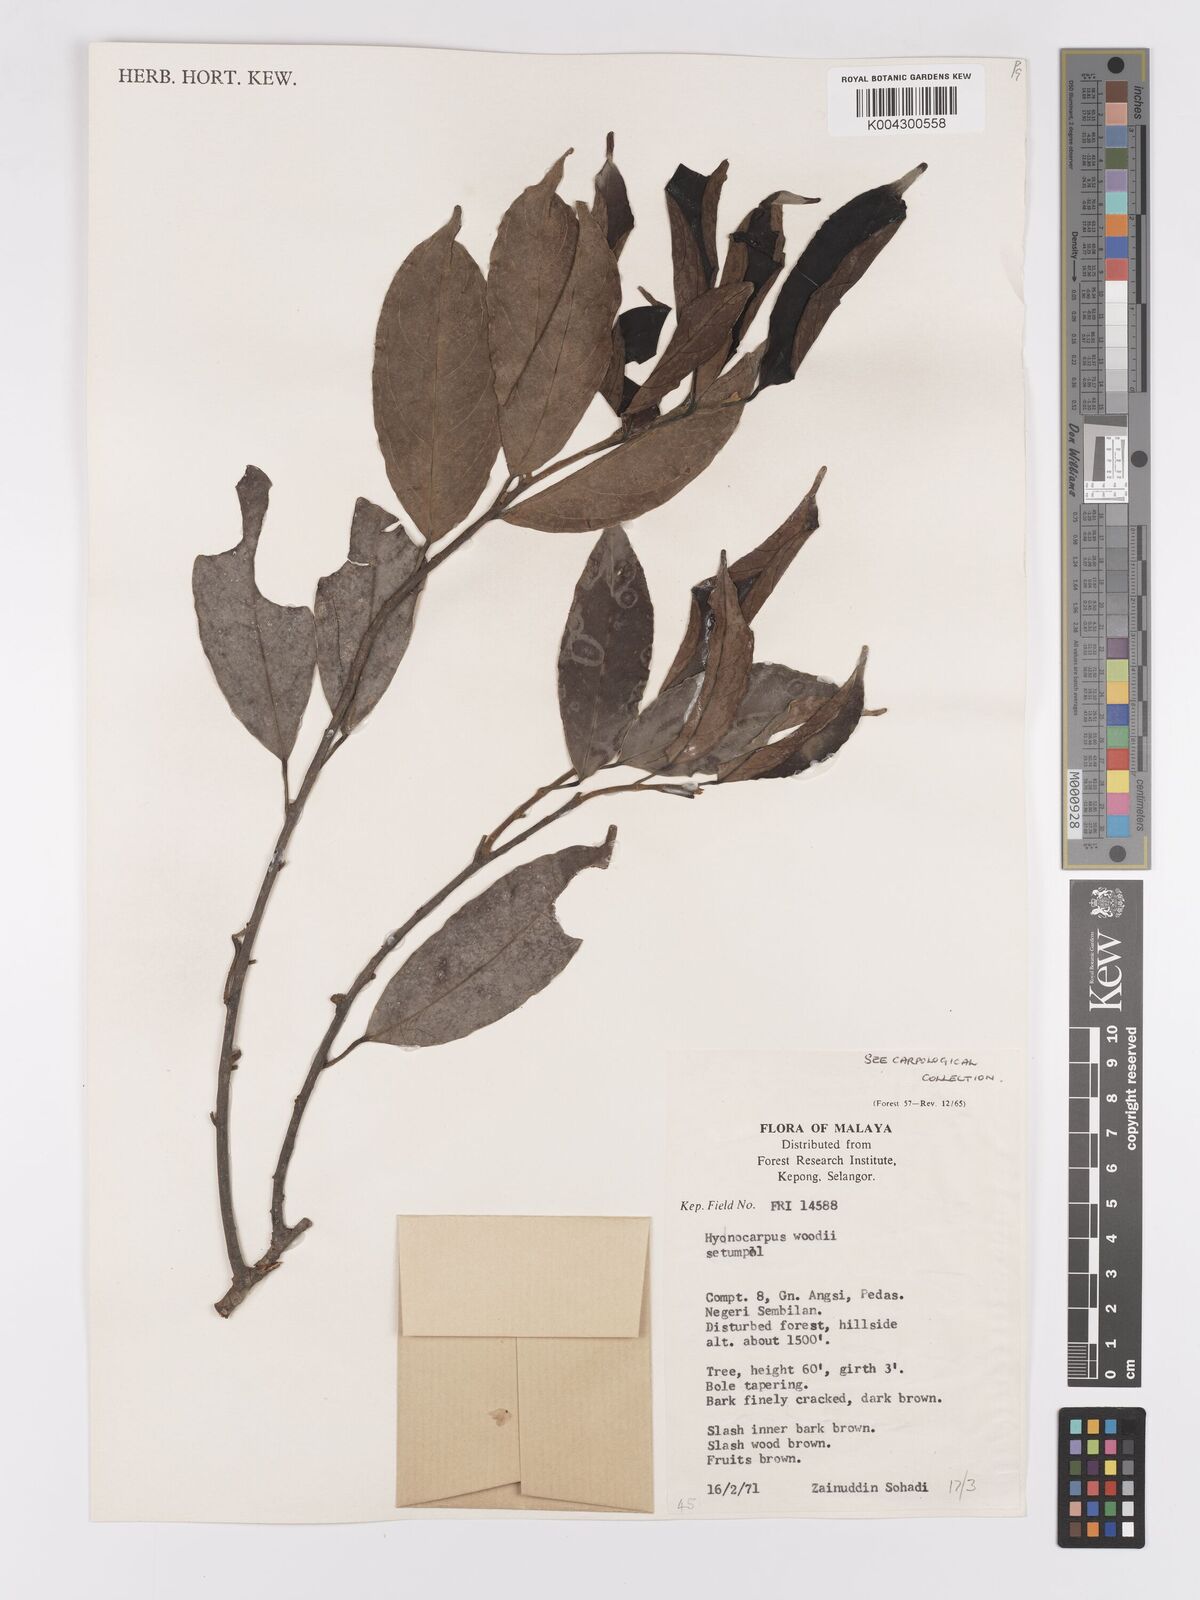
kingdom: Plantae
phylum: Tracheophyta
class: Magnoliopsida
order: Malpighiales
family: Achariaceae
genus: Hydnocarpus
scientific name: Hydnocarpus woodii
